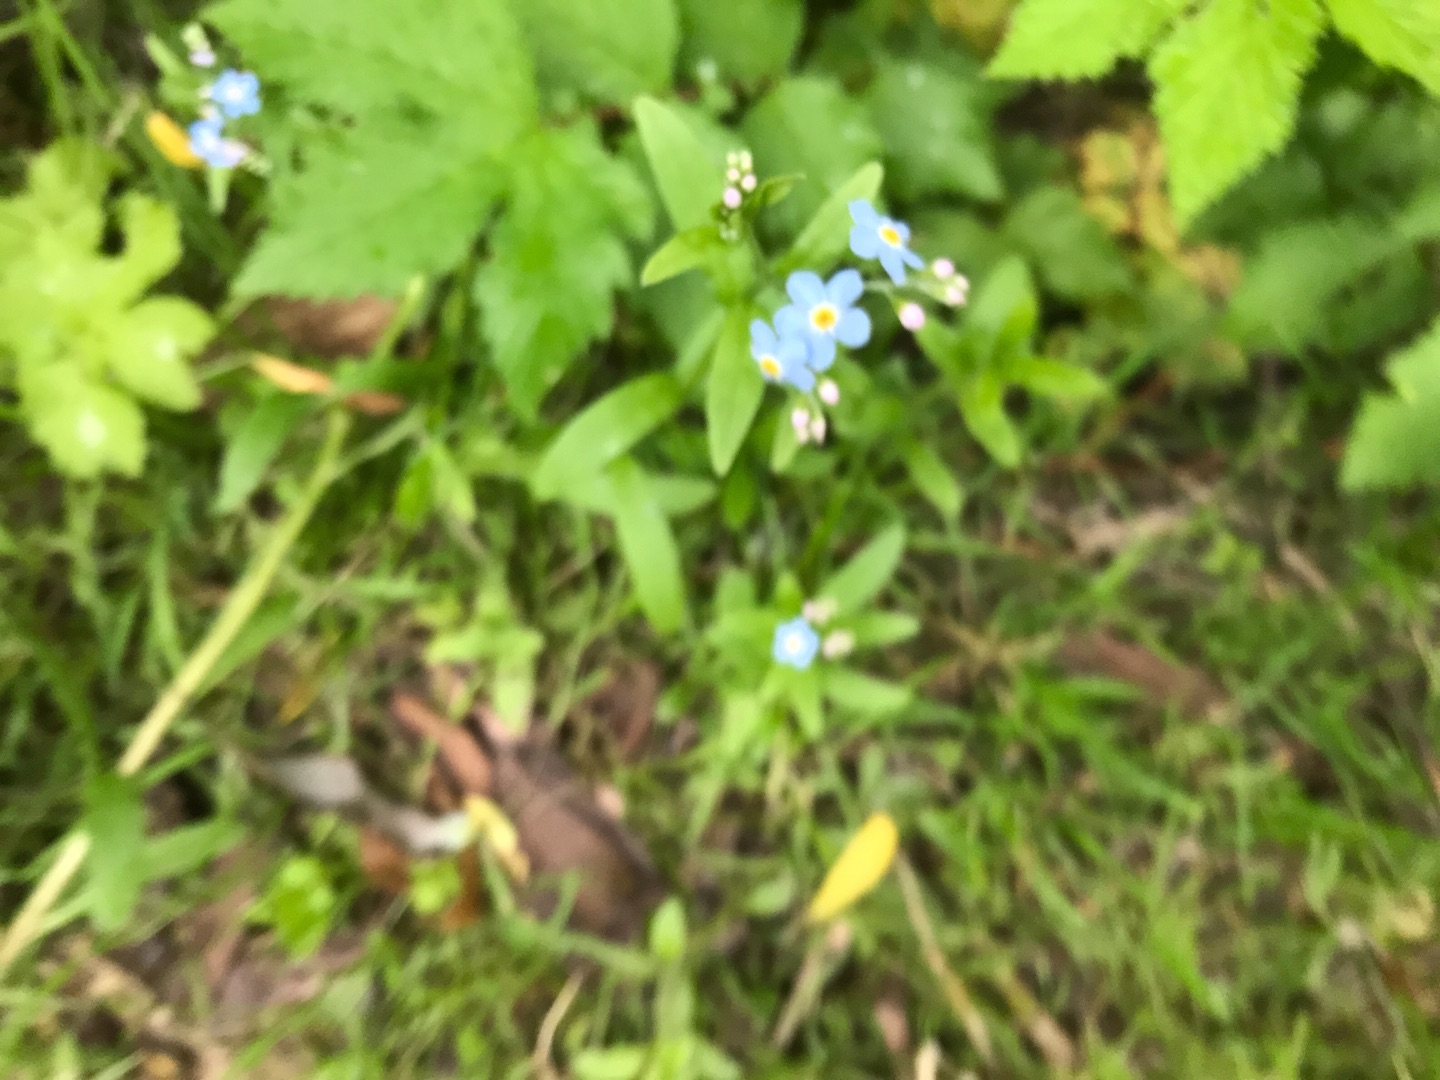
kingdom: Plantae
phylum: Tracheophyta
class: Magnoliopsida
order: Boraginales
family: Boraginaceae
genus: Myosotis
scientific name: Myosotis scorpioides
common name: Eng-forglemmigej
